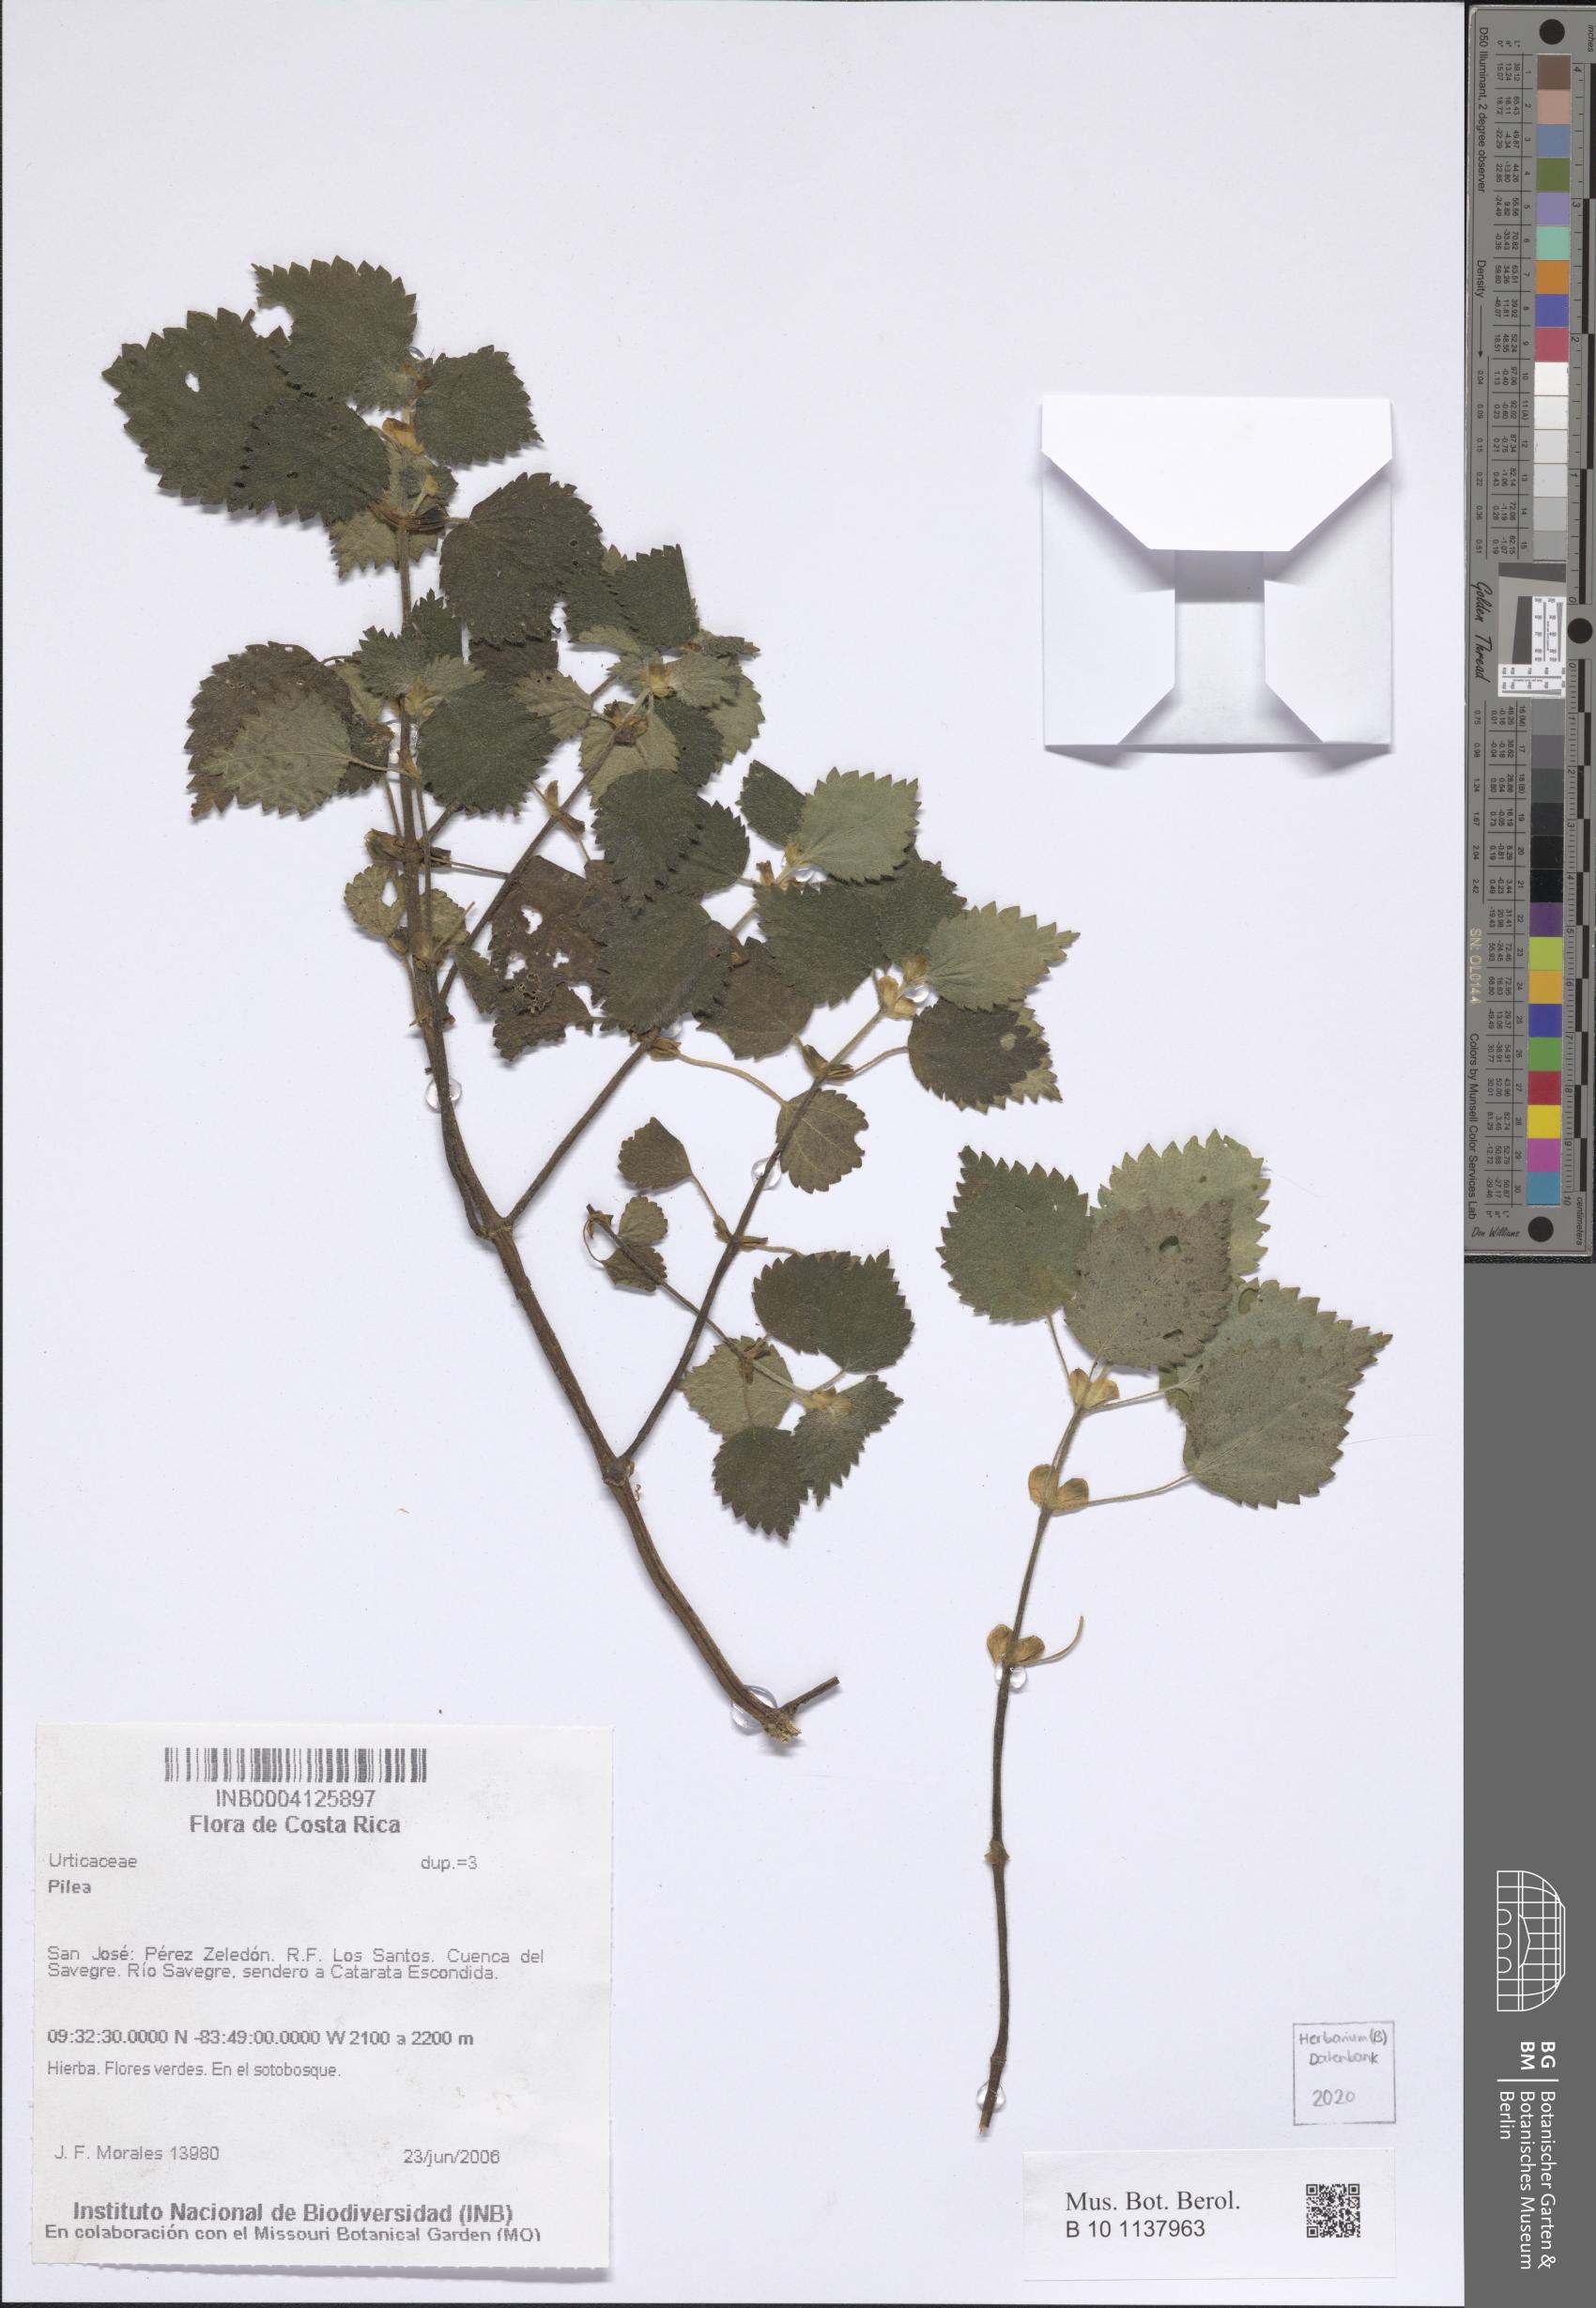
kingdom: Plantae
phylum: Tracheophyta
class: Magnoliopsida
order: Rosales
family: Urticaceae
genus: Pilea
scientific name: Pilea
